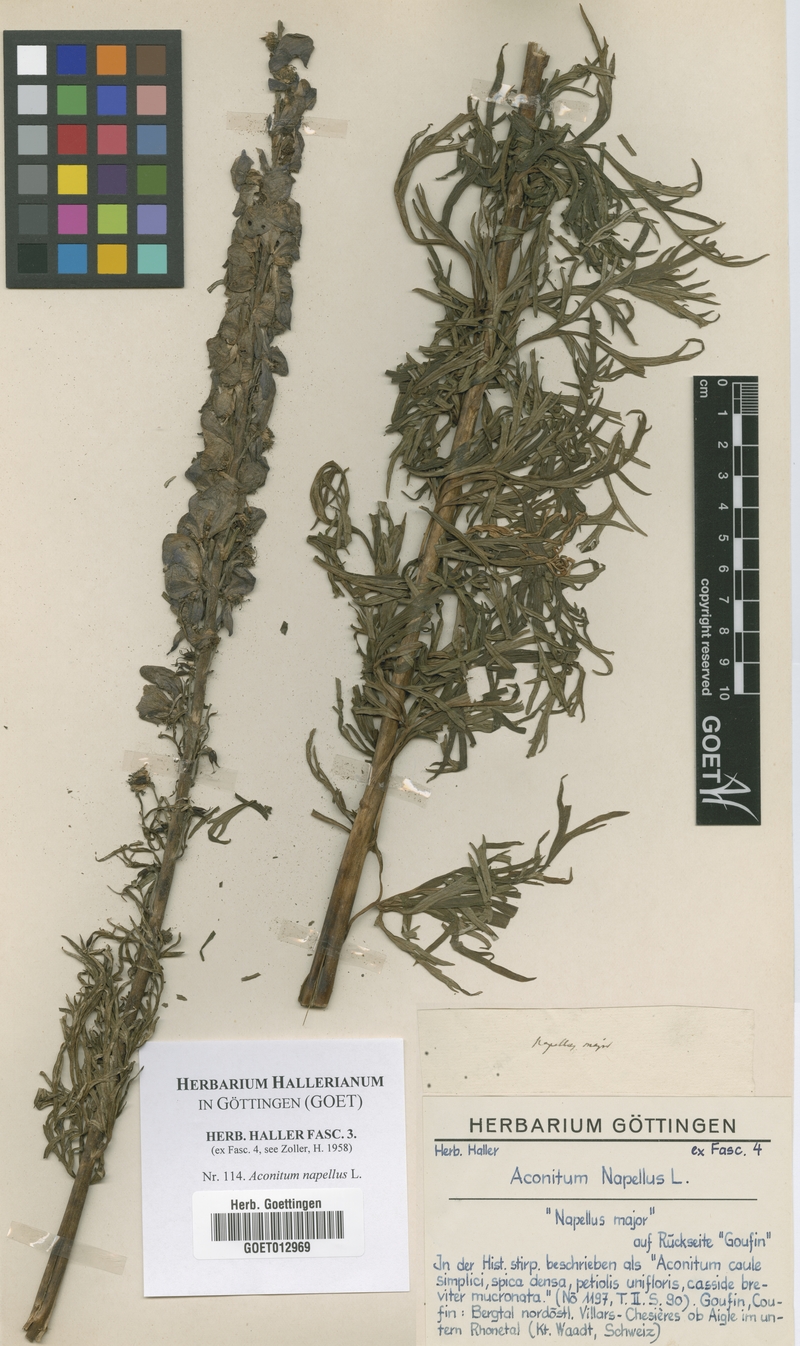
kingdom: Plantae
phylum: Tracheophyta
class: Magnoliopsida
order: Ranunculales
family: Ranunculaceae
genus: Aconitum
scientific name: Aconitum napellus
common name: Garden monkshood
